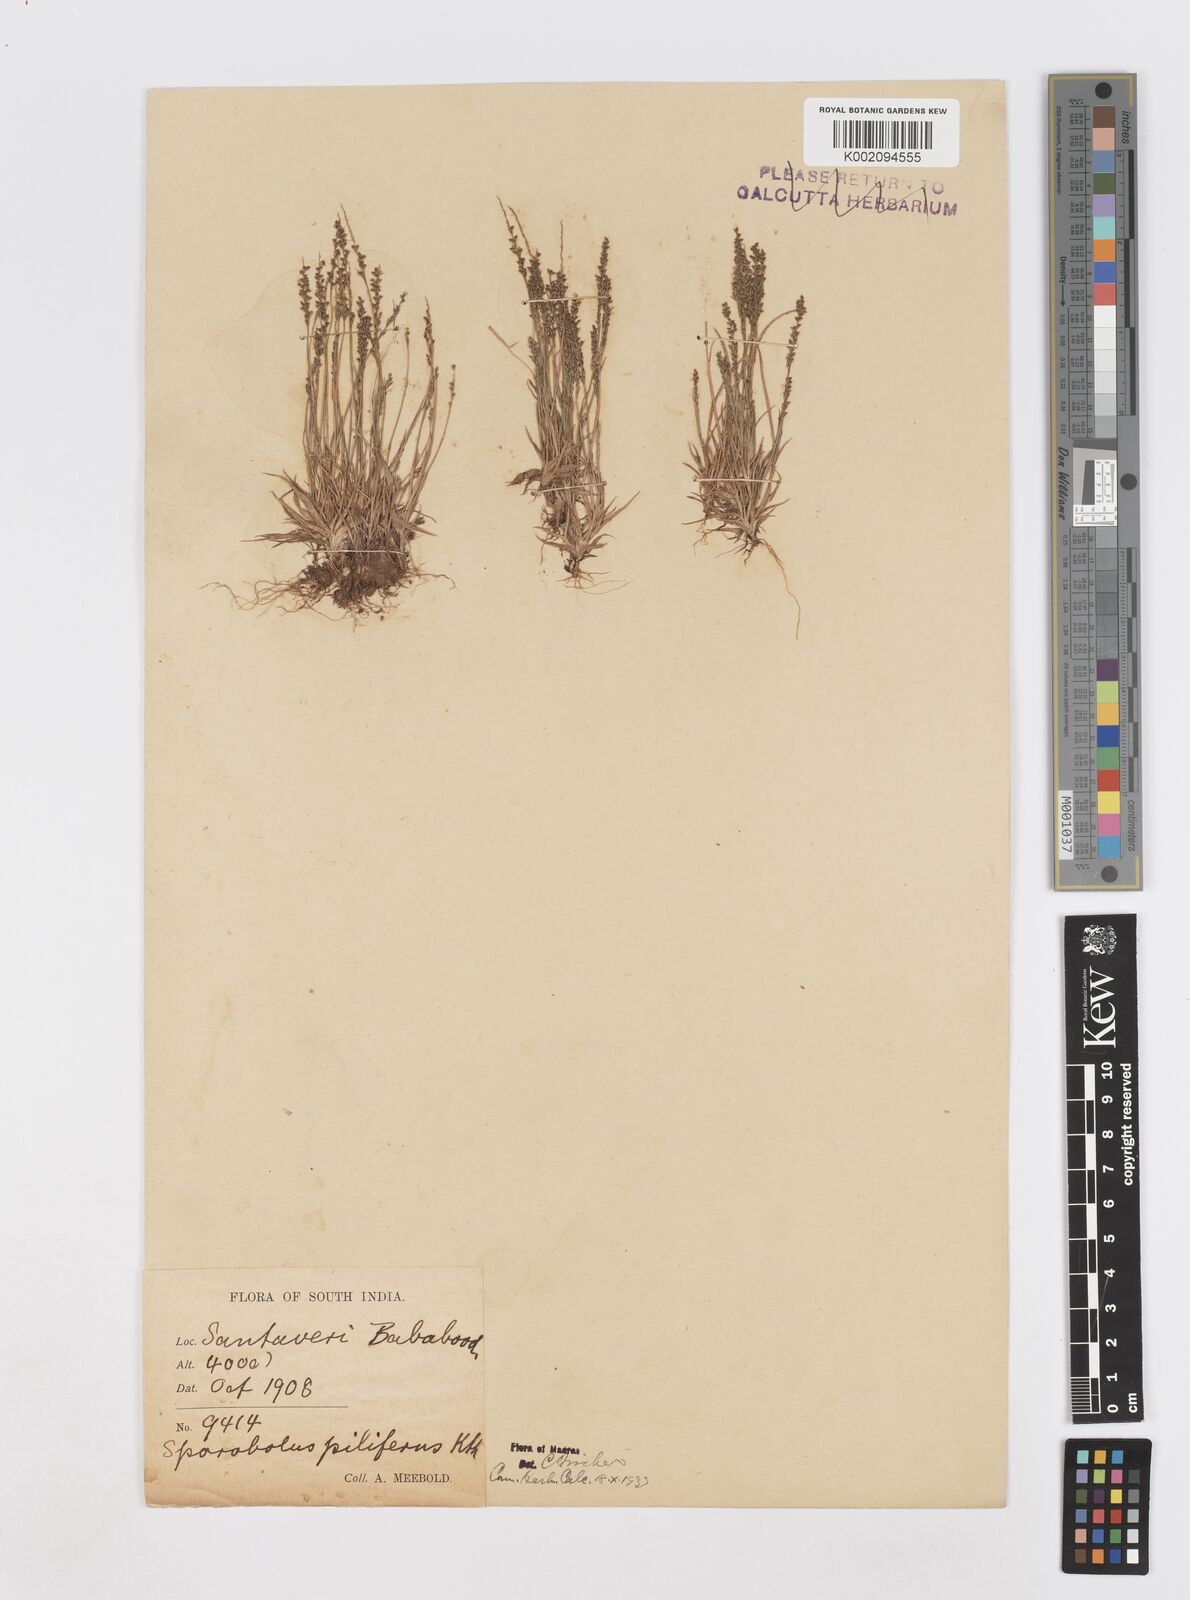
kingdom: Plantae
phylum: Tracheophyta
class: Liliopsida
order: Poales
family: Poaceae
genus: Sporobolus
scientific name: Sporobolus pilifer
